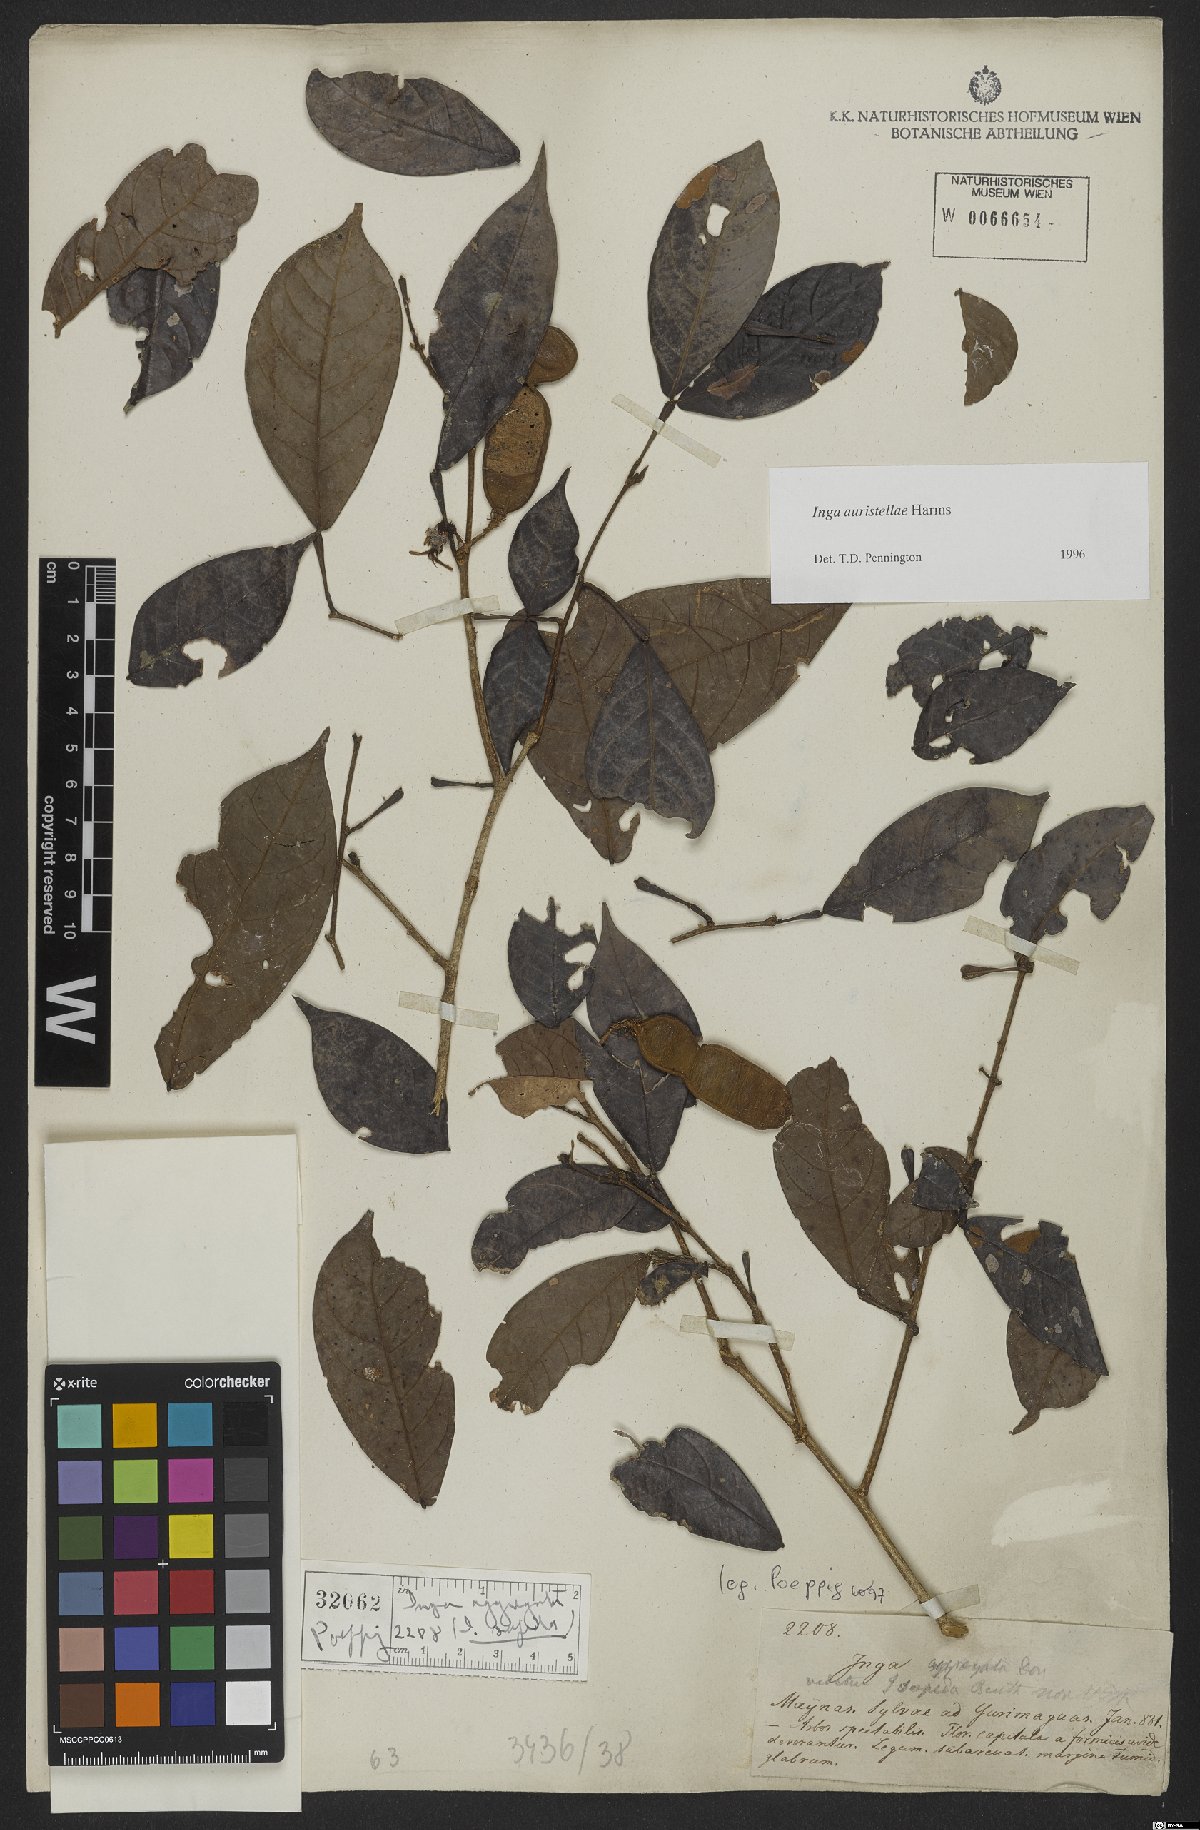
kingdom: Plantae
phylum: Tracheophyta
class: Magnoliopsida
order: Fabales
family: Fabaceae
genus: Inga
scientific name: Inga auristellae
